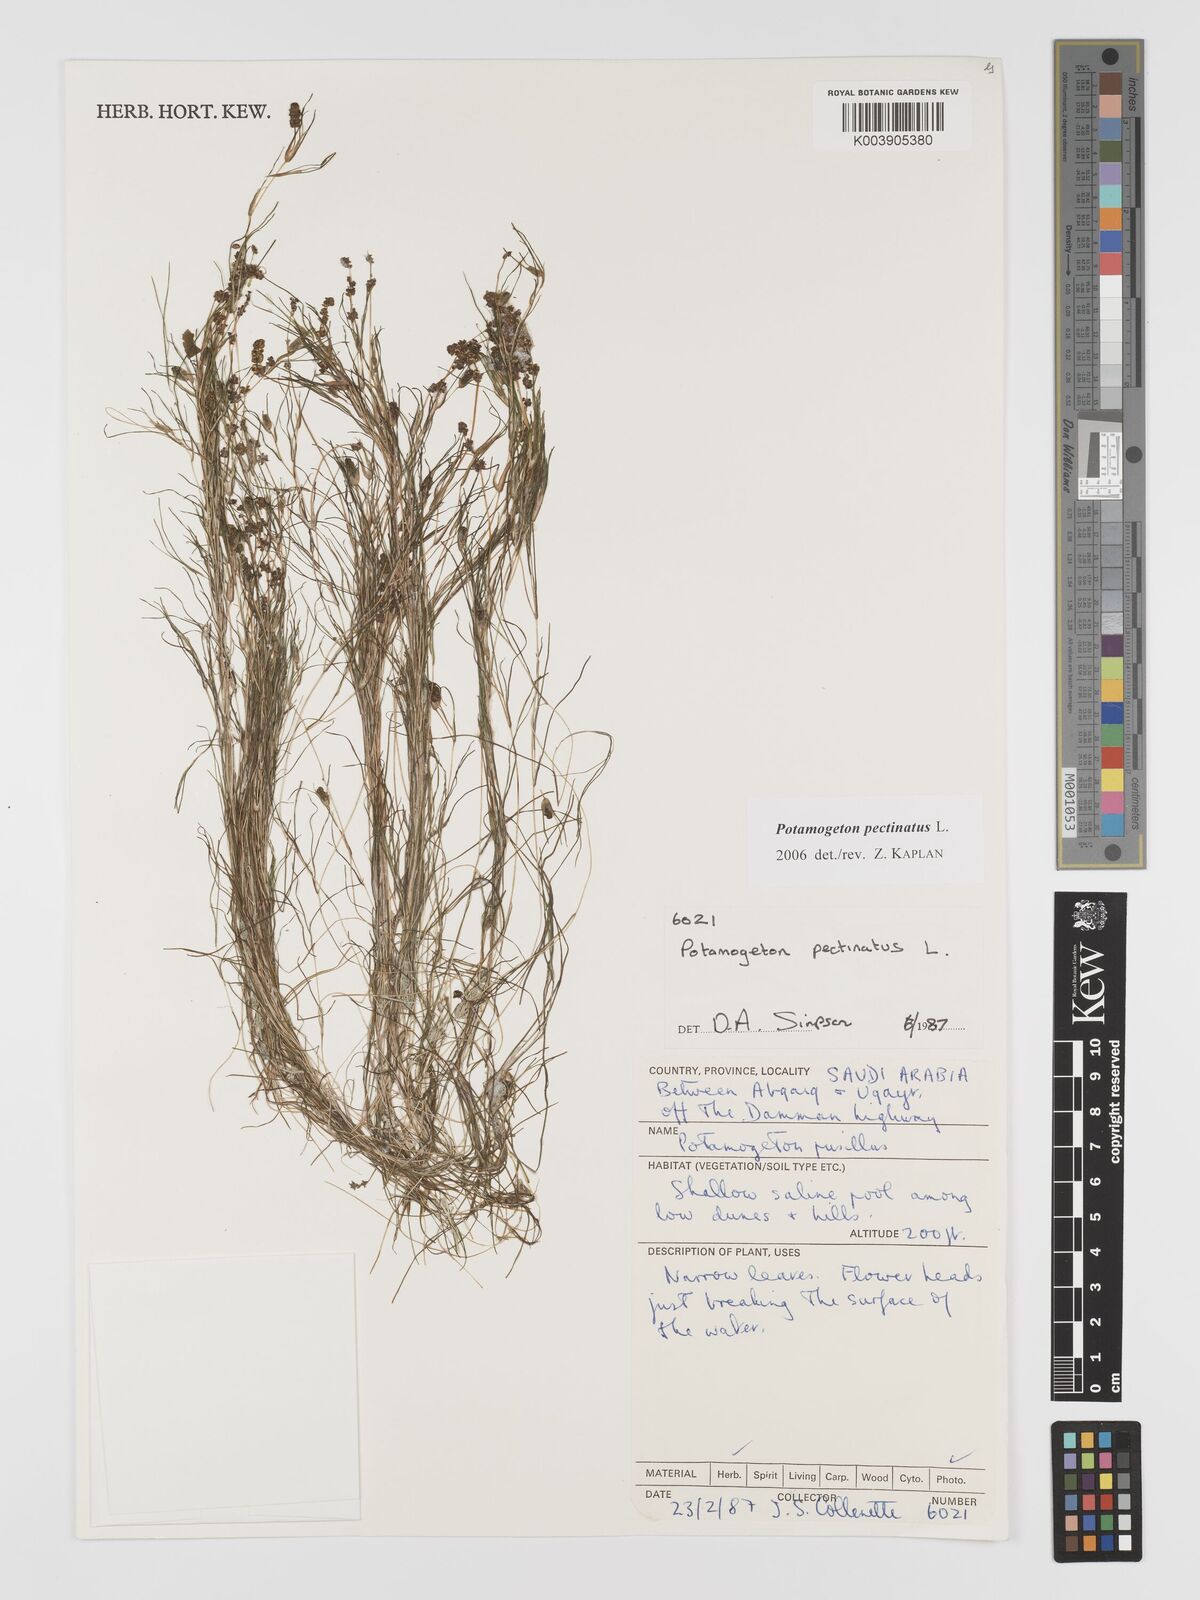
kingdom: Plantae
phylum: Tracheophyta
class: Liliopsida
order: Alismatales
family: Potamogetonaceae
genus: Stuckenia
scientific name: Stuckenia pectinata
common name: Sago pondweed
